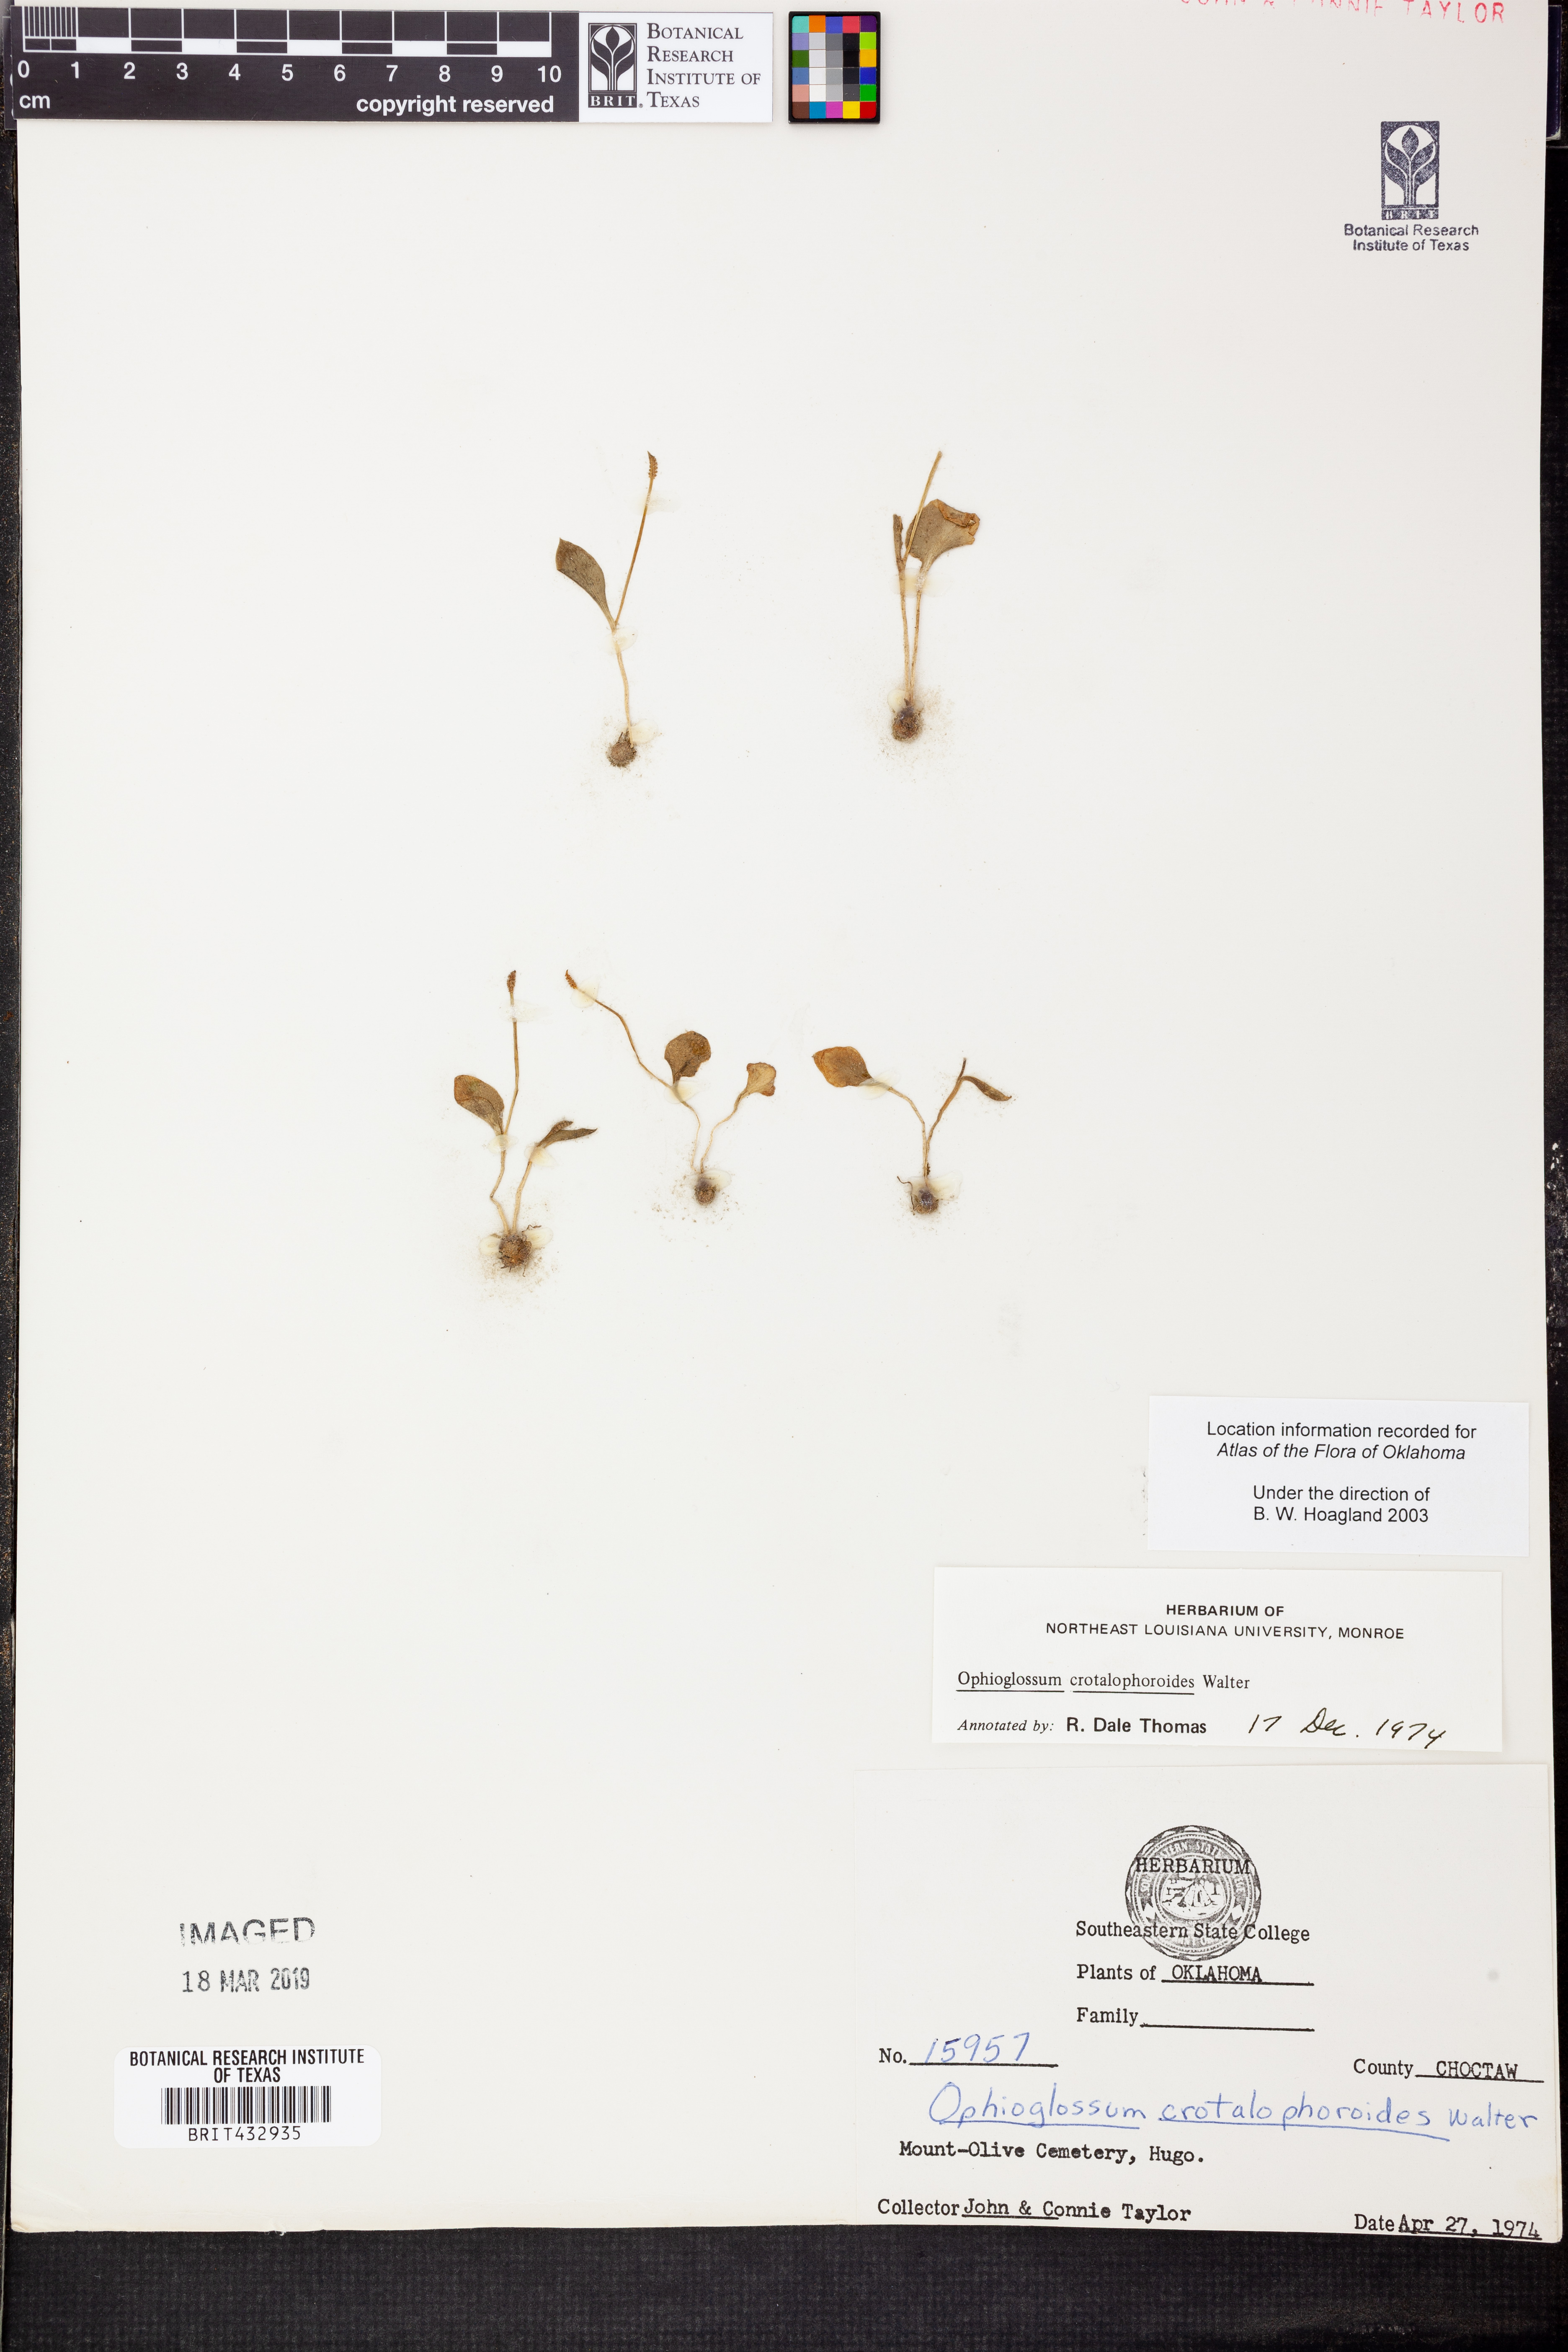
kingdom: Plantae
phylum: Tracheophyta
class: Polypodiopsida
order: Ophioglossales
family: Ophioglossaceae
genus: Ophioglossum
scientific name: Ophioglossum crotalophoroides
